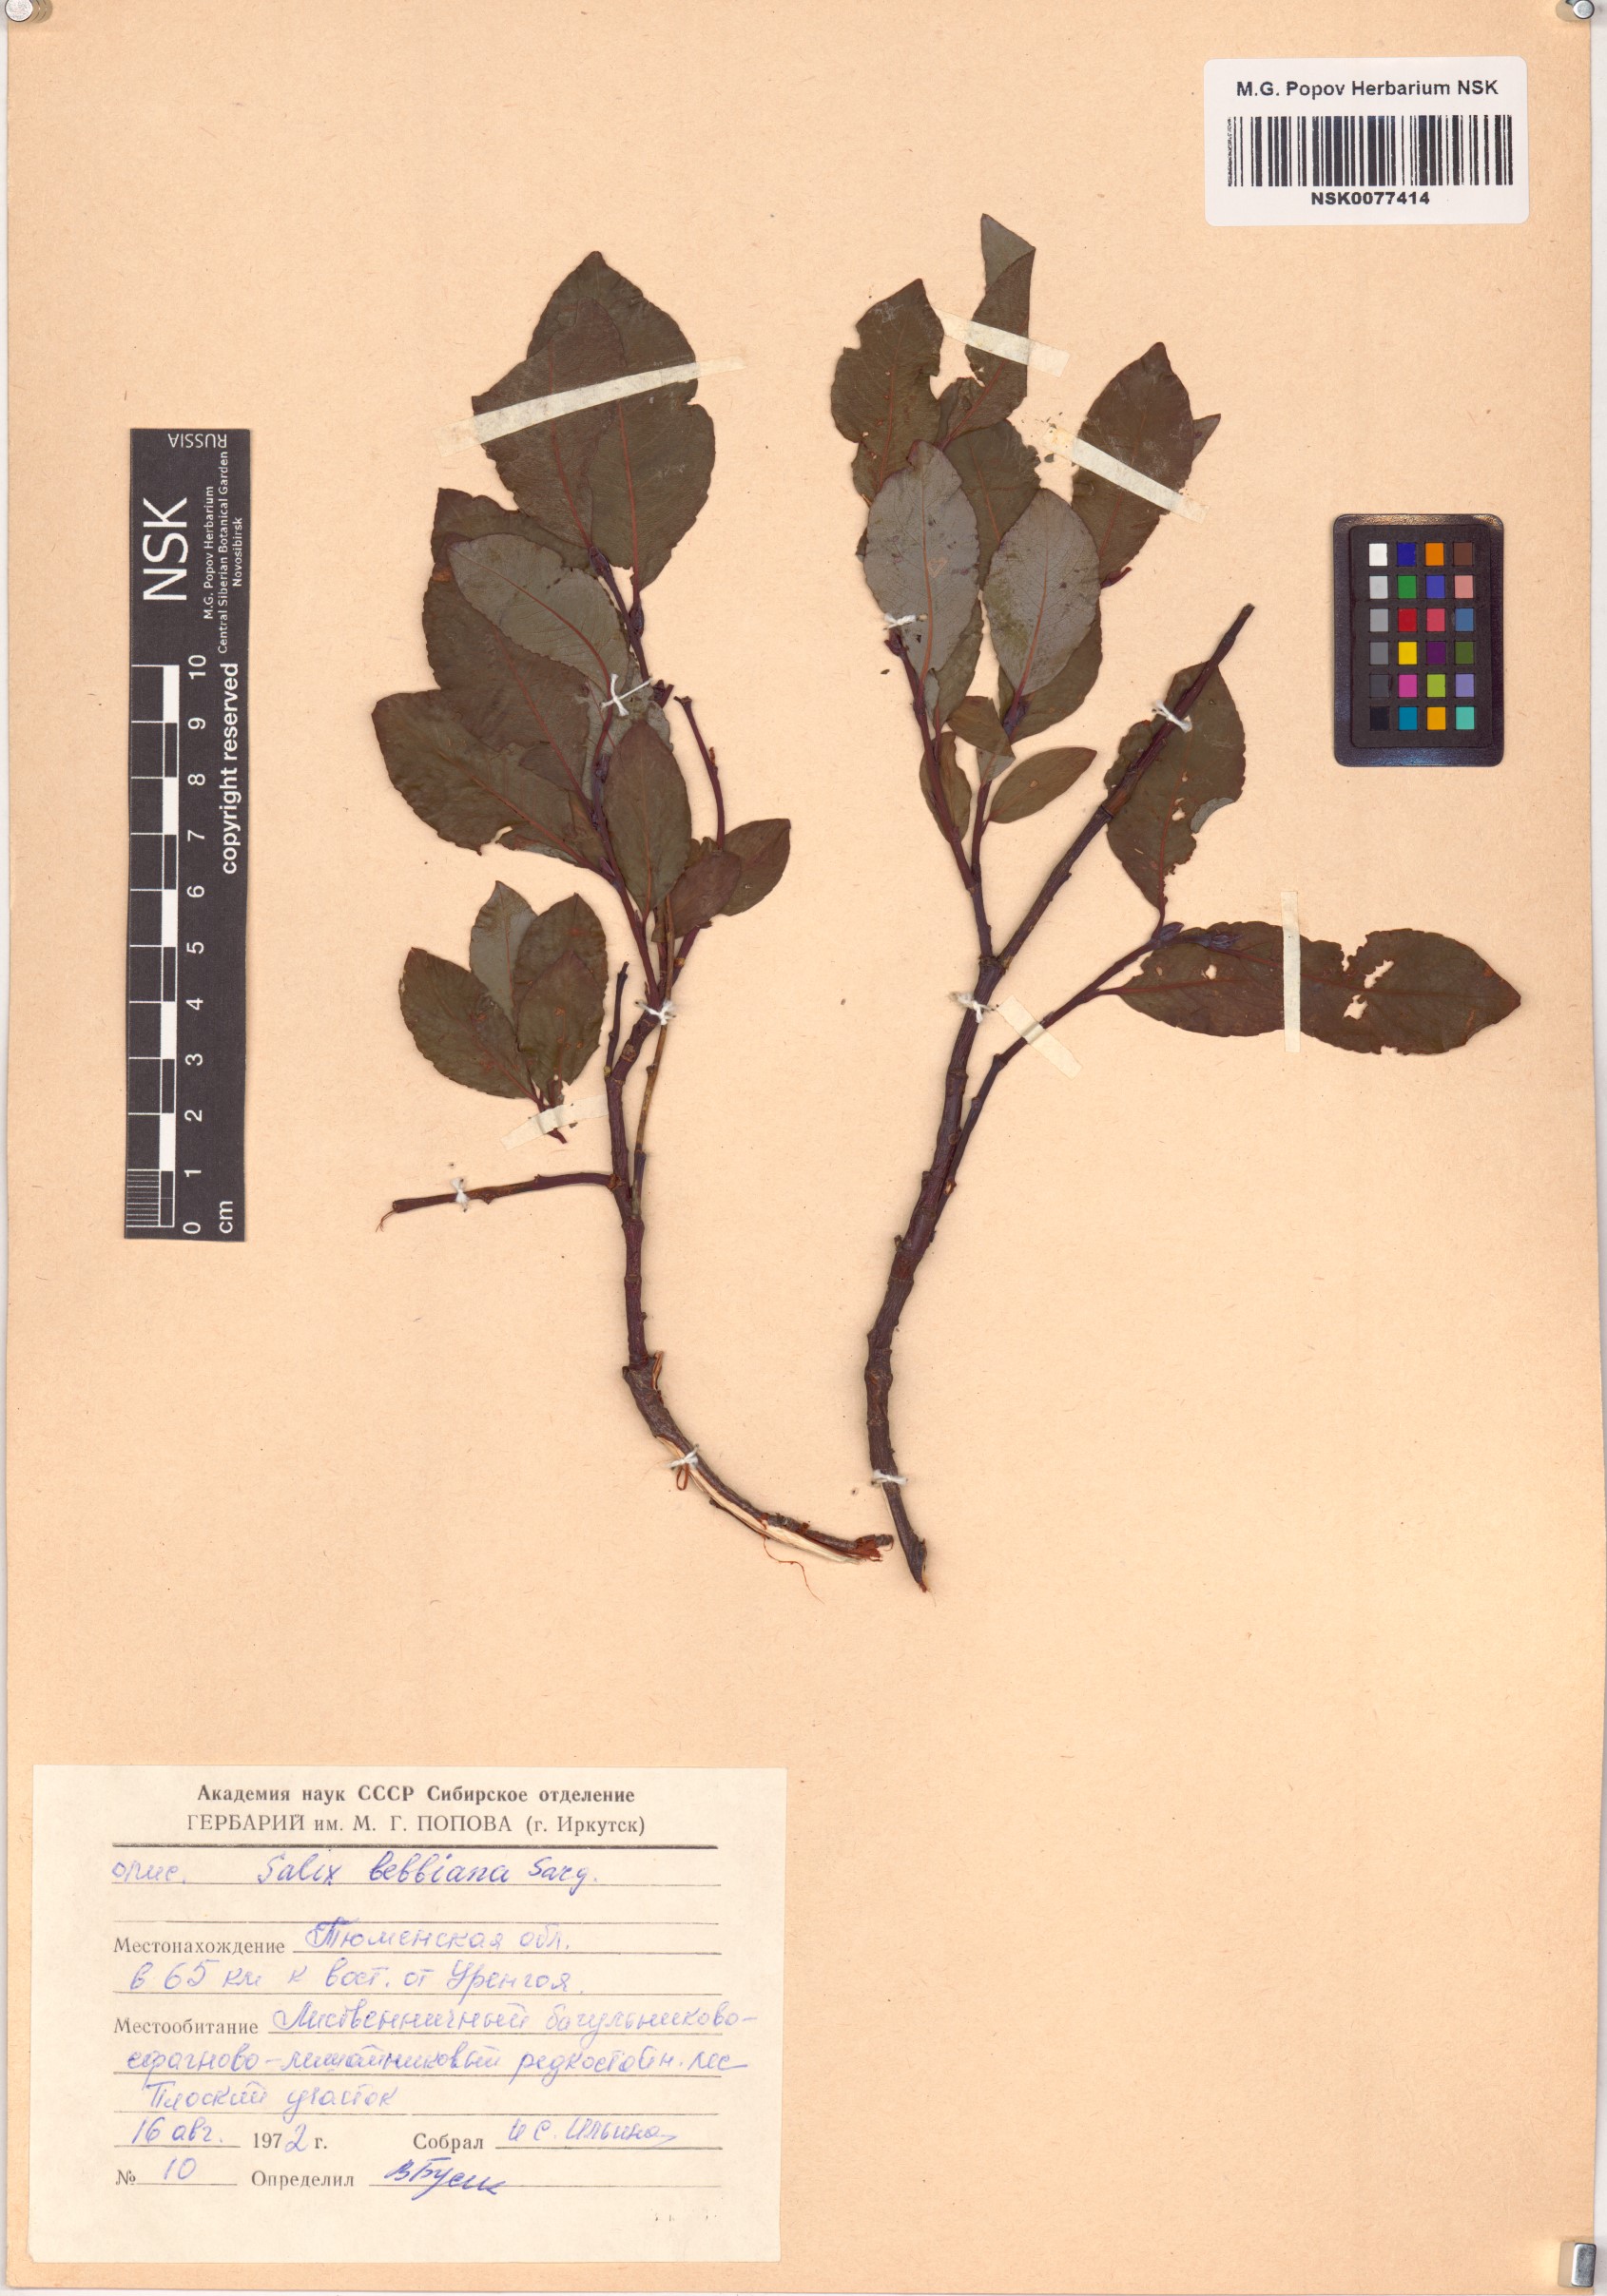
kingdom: Plantae
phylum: Tracheophyta
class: Magnoliopsida
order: Malpighiales
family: Salicaceae
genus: Salix
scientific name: Salix bebbiana
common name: Bebb's willow
